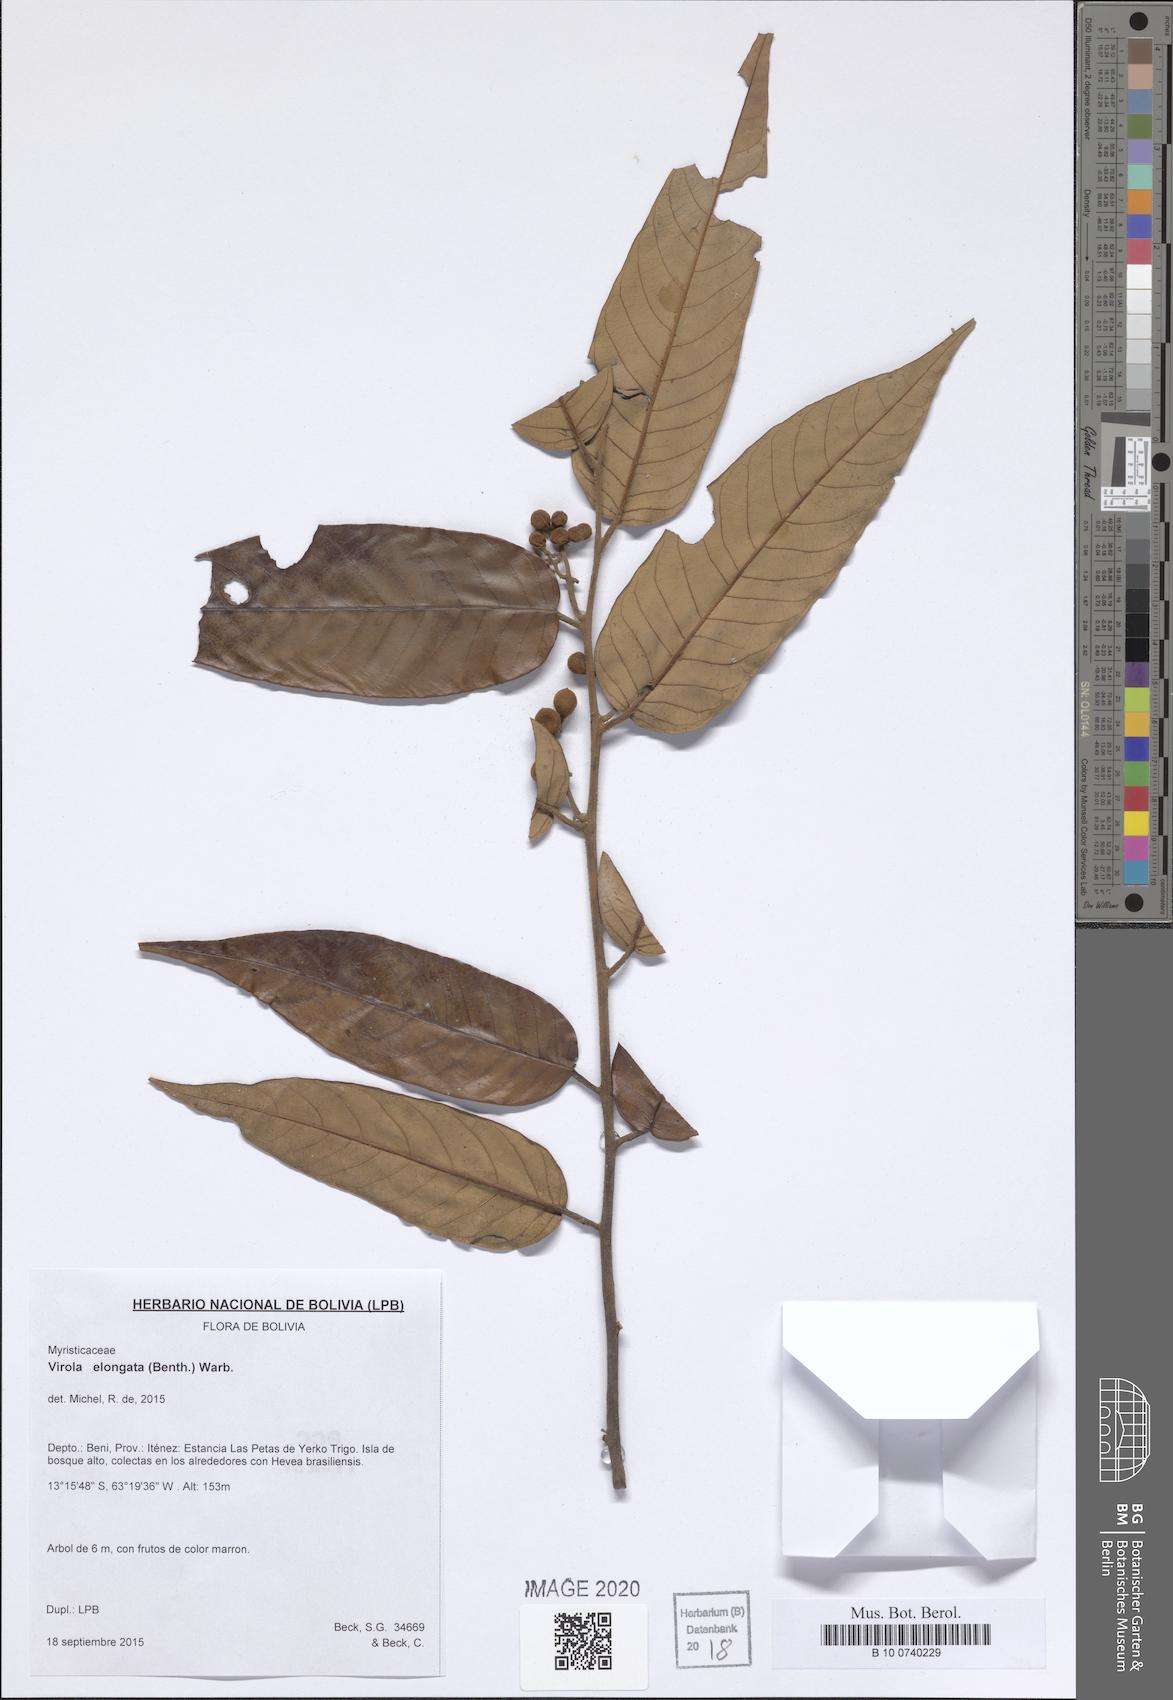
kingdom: Plantae
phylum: Tracheophyta
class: Magnoliopsida
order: Magnoliales
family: Myristicaceae
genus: Virola
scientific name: Virola elongata
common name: Sacred virola
